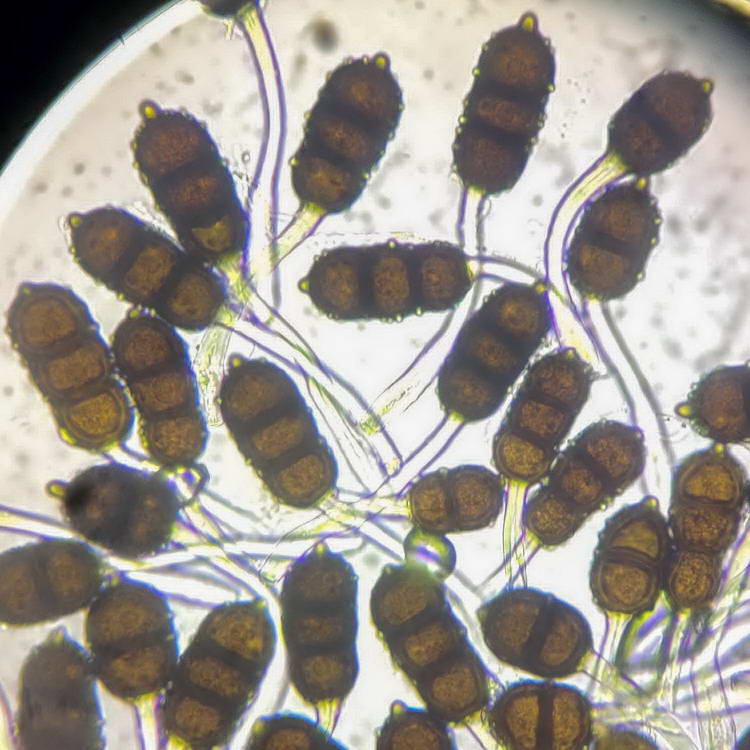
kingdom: Fungi
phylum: Basidiomycota
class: Pucciniomycetes
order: Pucciniales
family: Phragmidiaceae
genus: Phragmidium
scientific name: Phragmidium violaceum
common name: violet flercellerust
